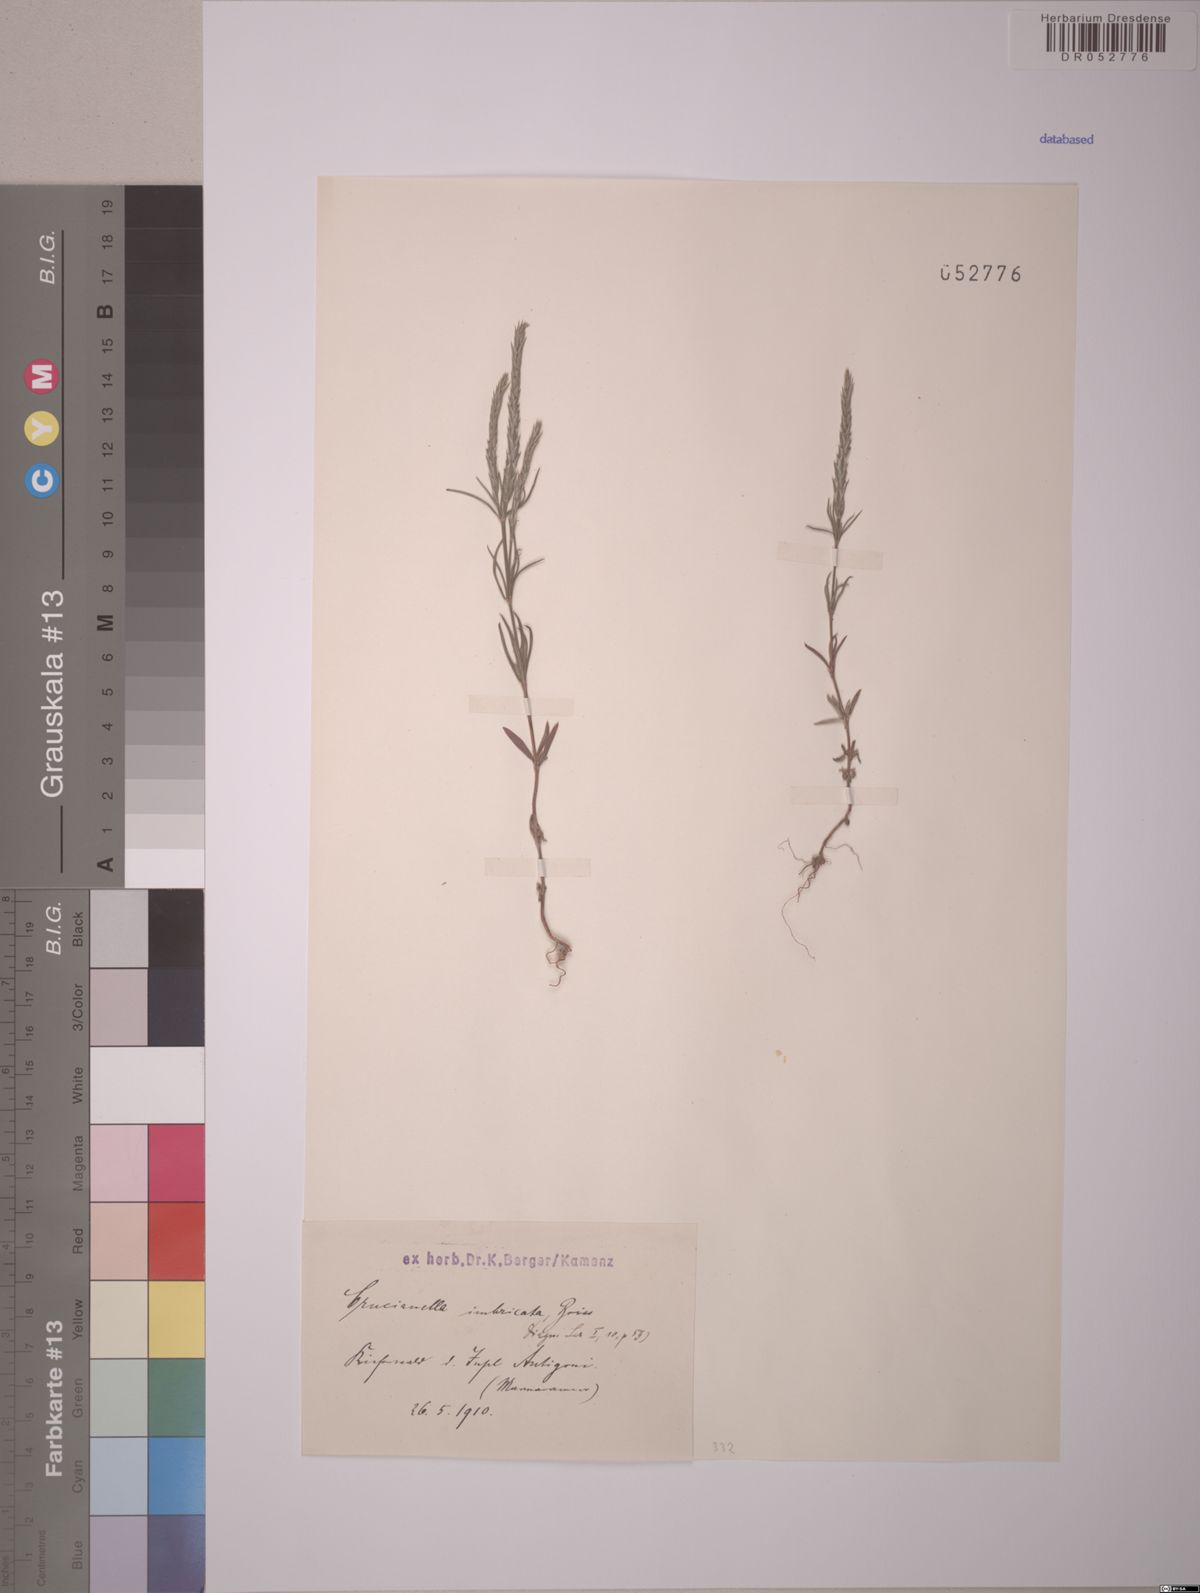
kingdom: Plantae
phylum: Tracheophyta
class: Magnoliopsida
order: Gentianales
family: Rubiaceae
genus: Crucianella
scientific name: Crucianella imbricata
